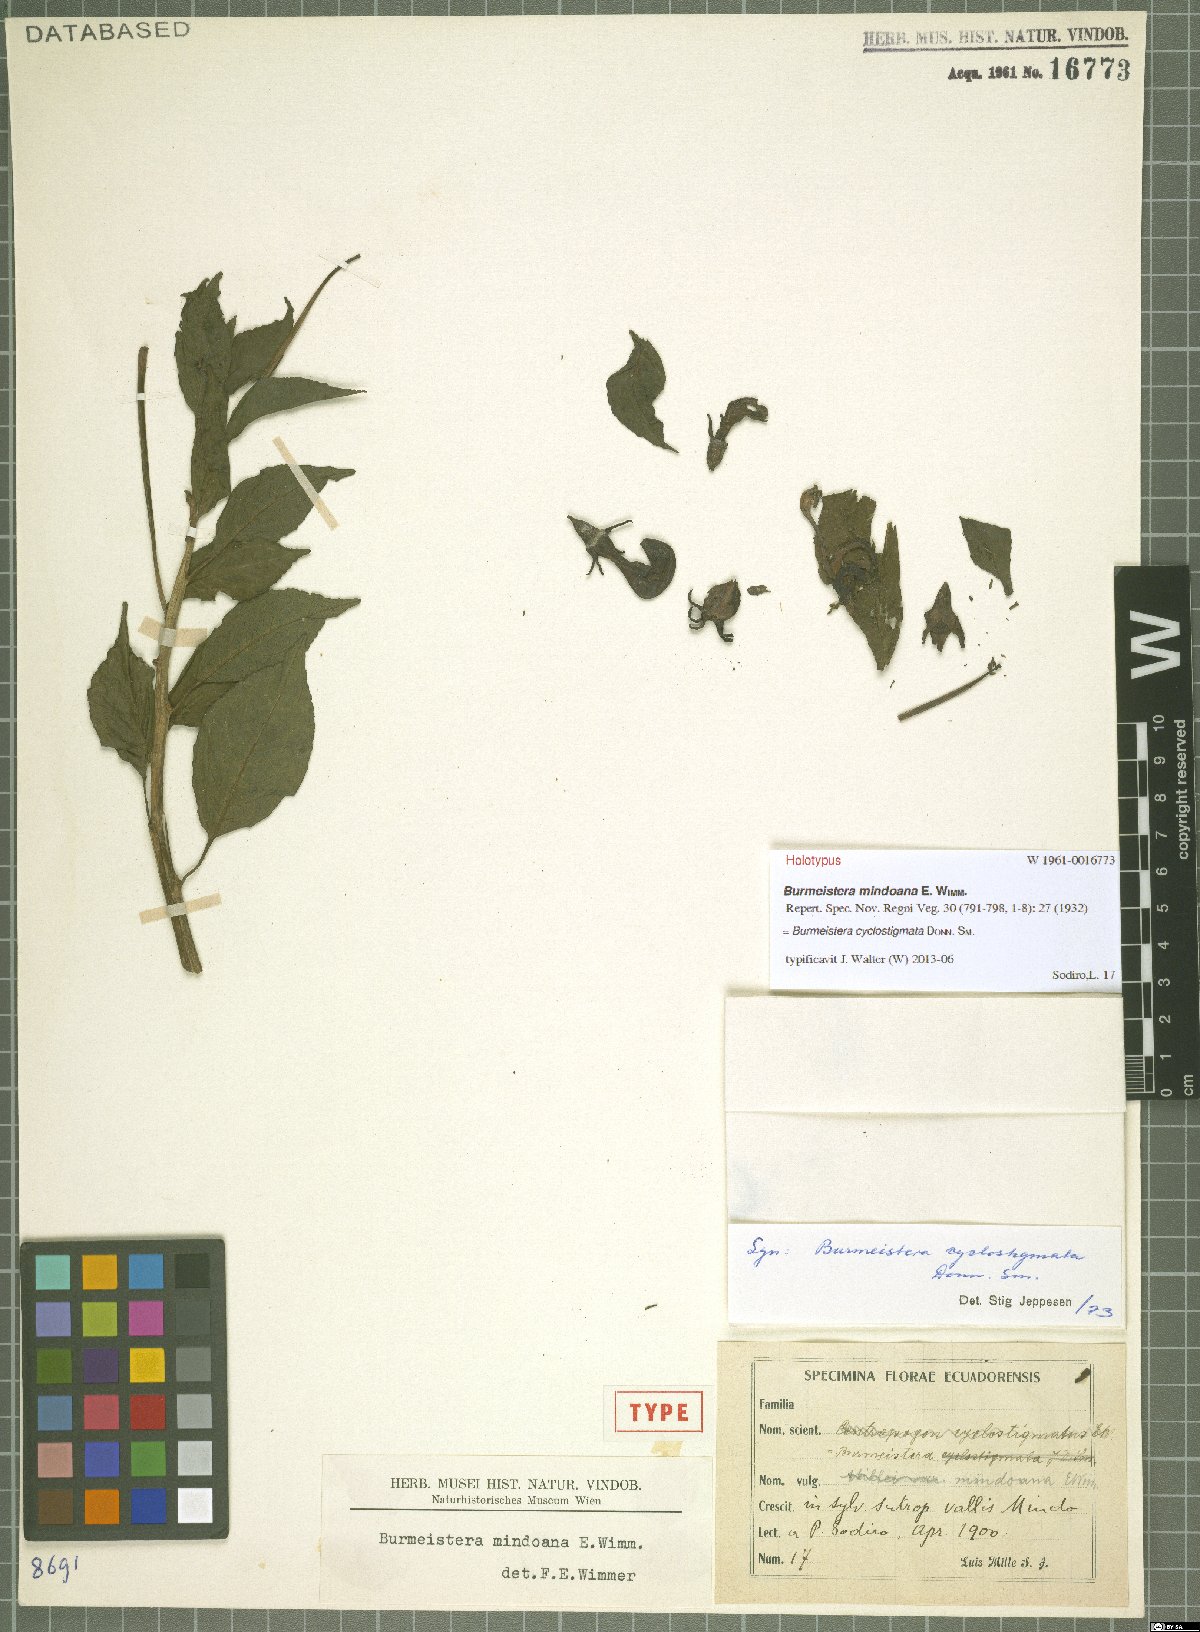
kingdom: Plantae
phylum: Tracheophyta
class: Magnoliopsida
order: Asterales
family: Campanulaceae
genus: Burmeistera
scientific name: Burmeistera cyclostigmata
